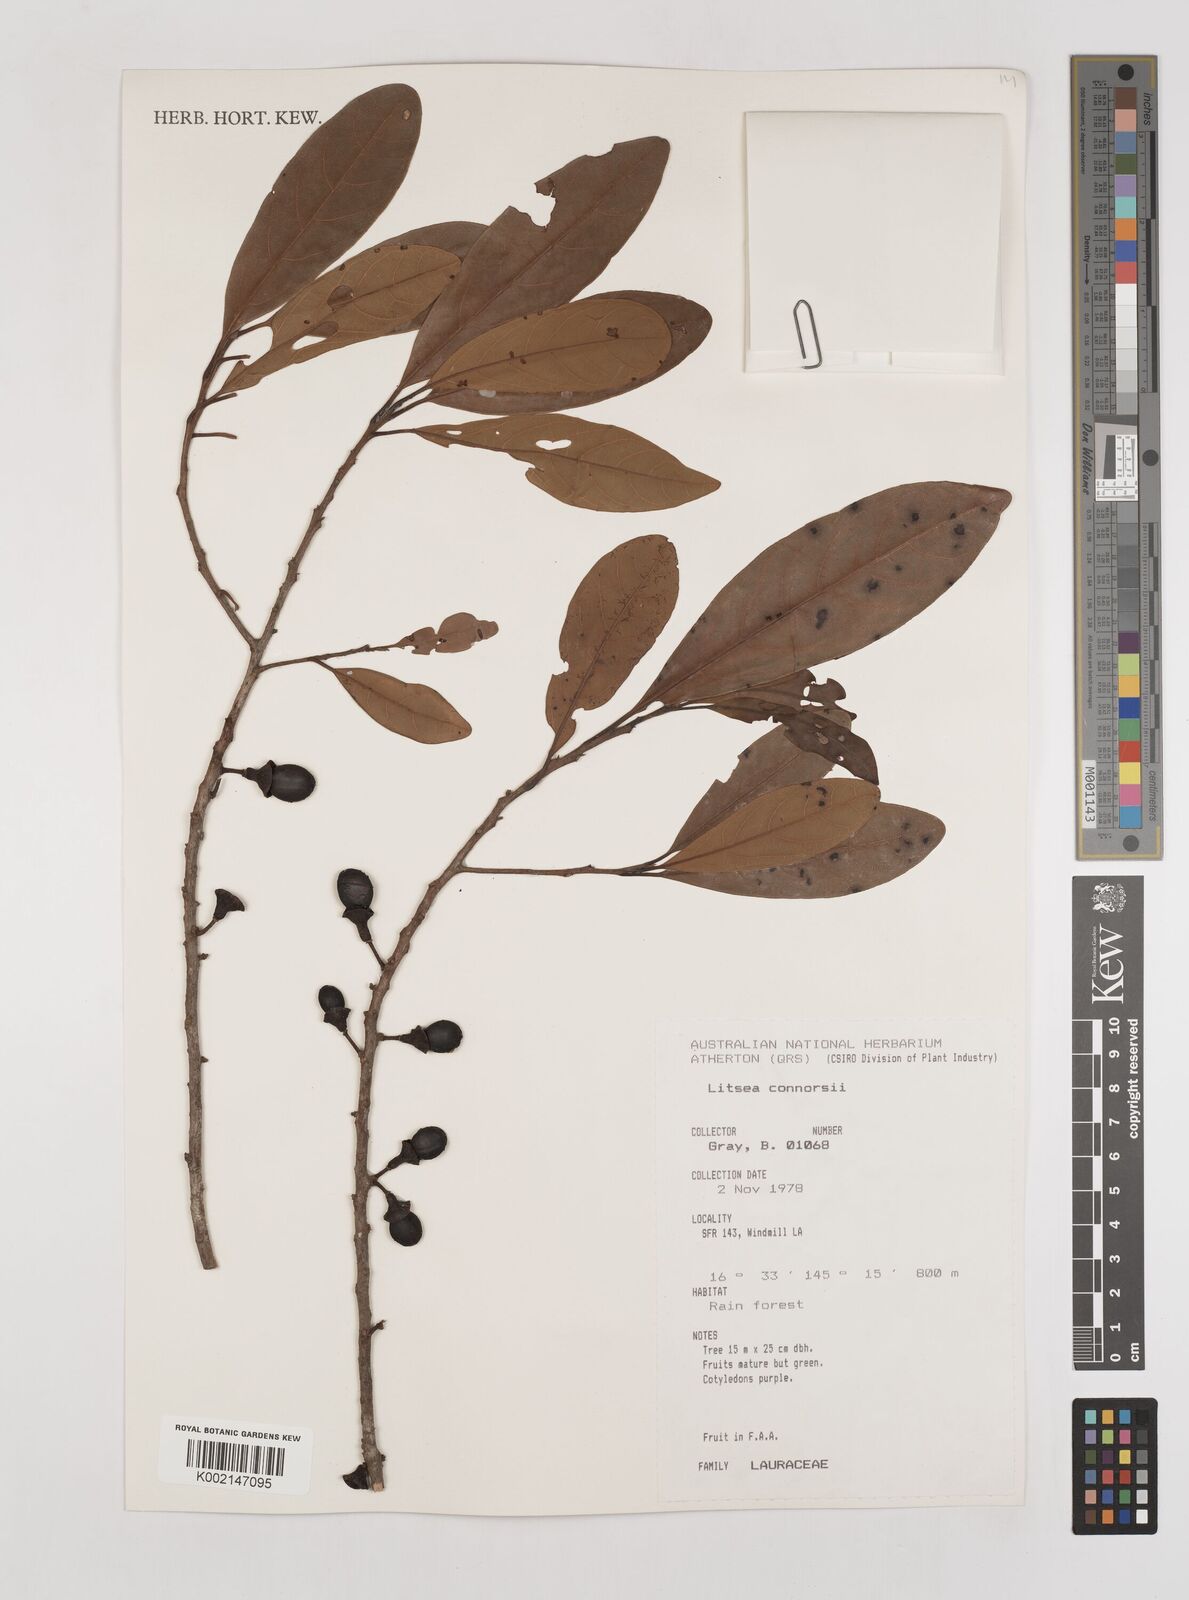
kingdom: Plantae
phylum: Tracheophyta
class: Magnoliopsida
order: Laurales
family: Lauraceae
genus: Litsea
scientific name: Litsea connorsii
